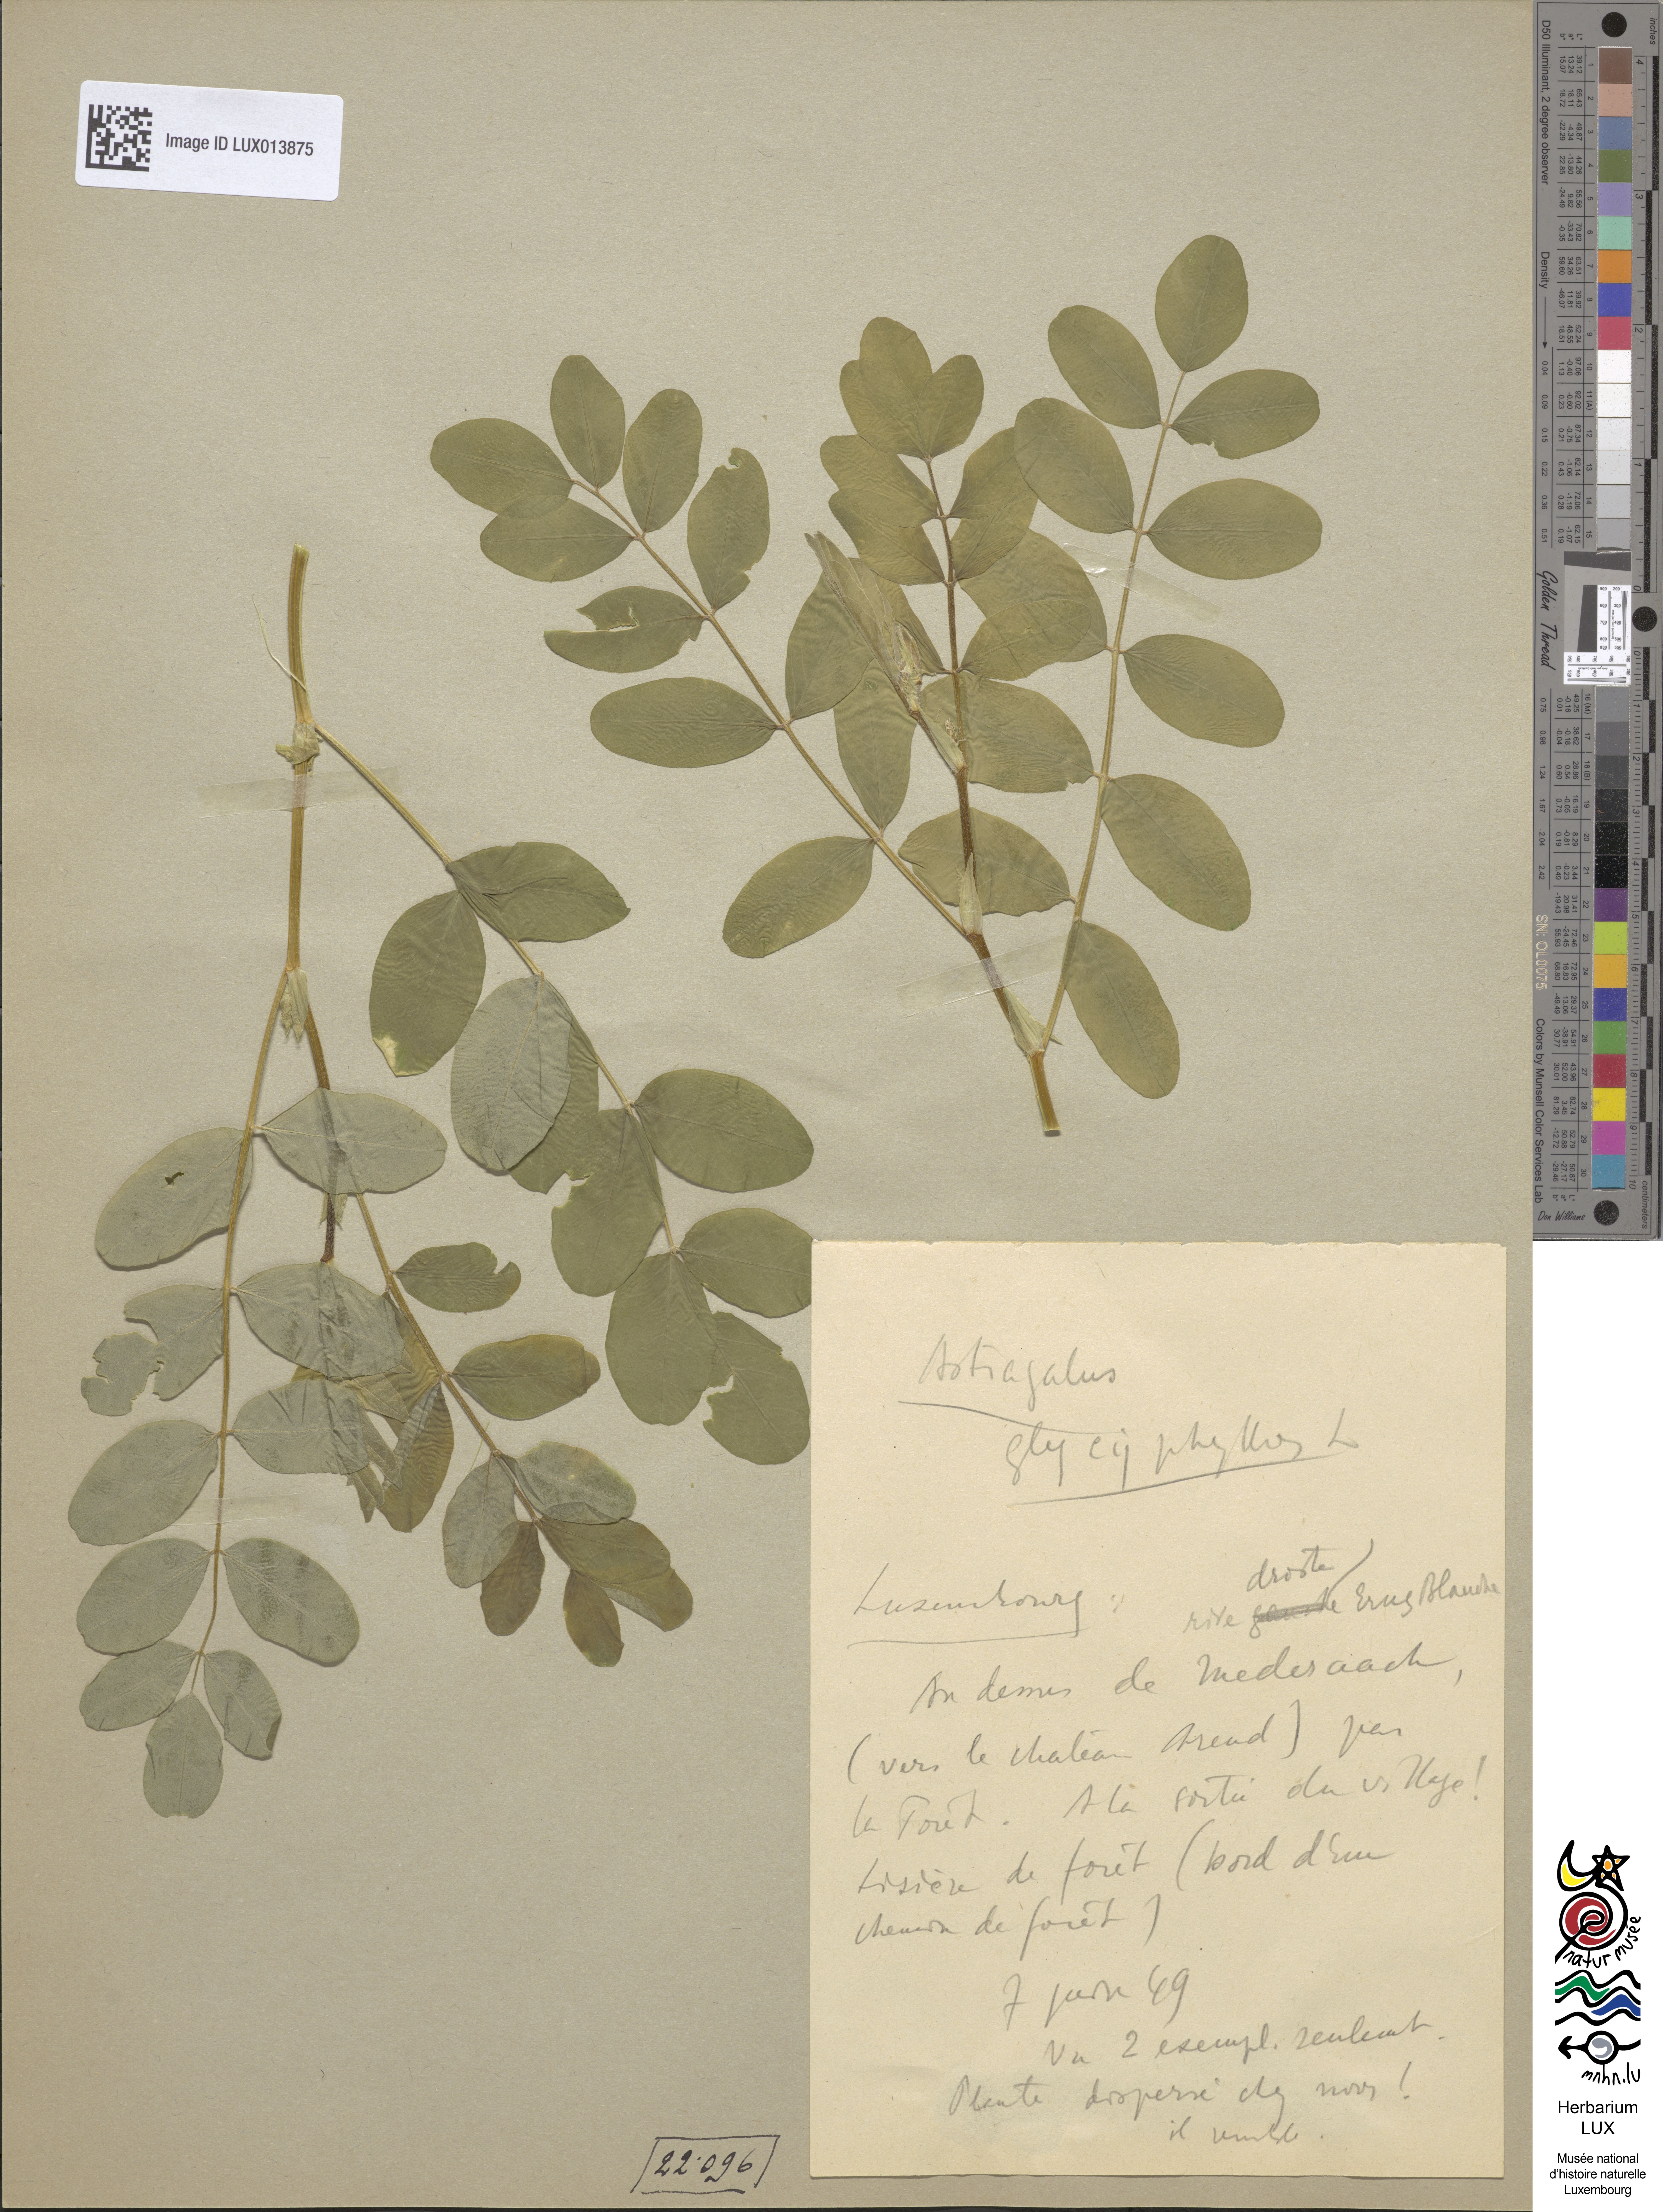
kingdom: Plantae
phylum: Tracheophyta
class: Magnoliopsida
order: Fabales
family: Fabaceae
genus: Astragalus
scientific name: Astragalus glycyphyllos
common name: Wild liquorice
